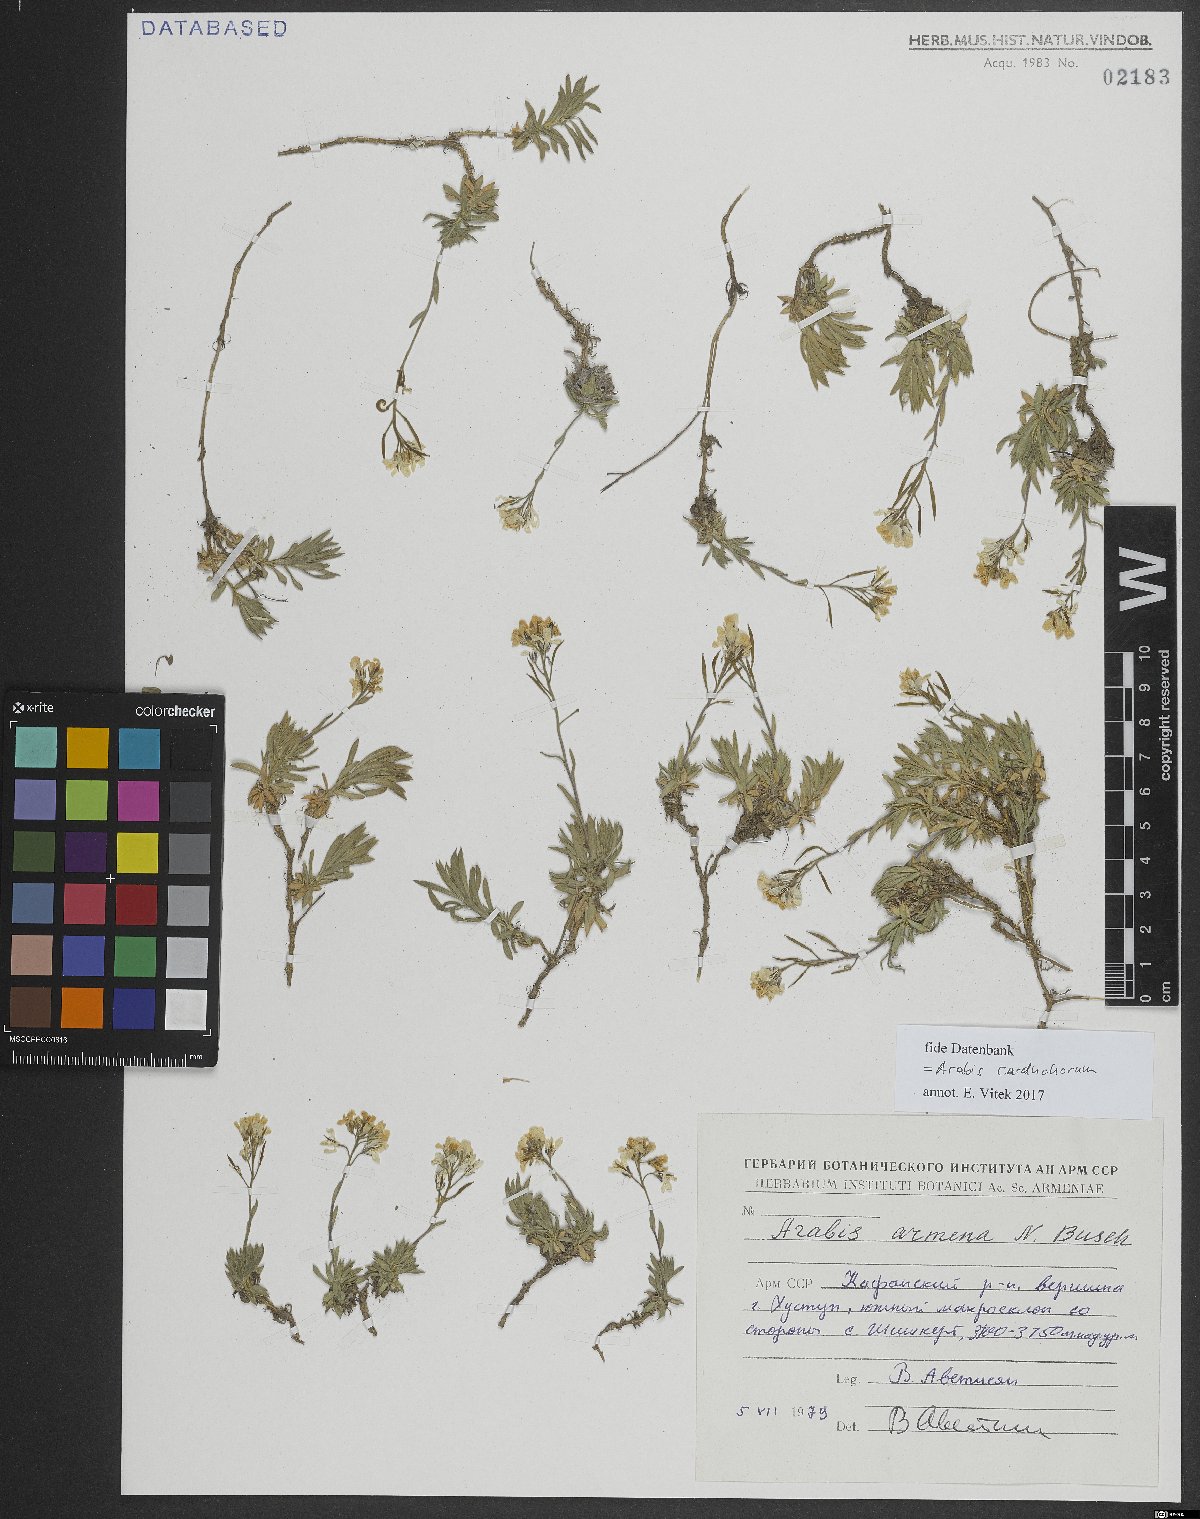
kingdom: Plantae
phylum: Tracheophyta
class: Magnoliopsida
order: Brassicales
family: Brassicaceae
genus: Arabis
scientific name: Arabis carduchorum
